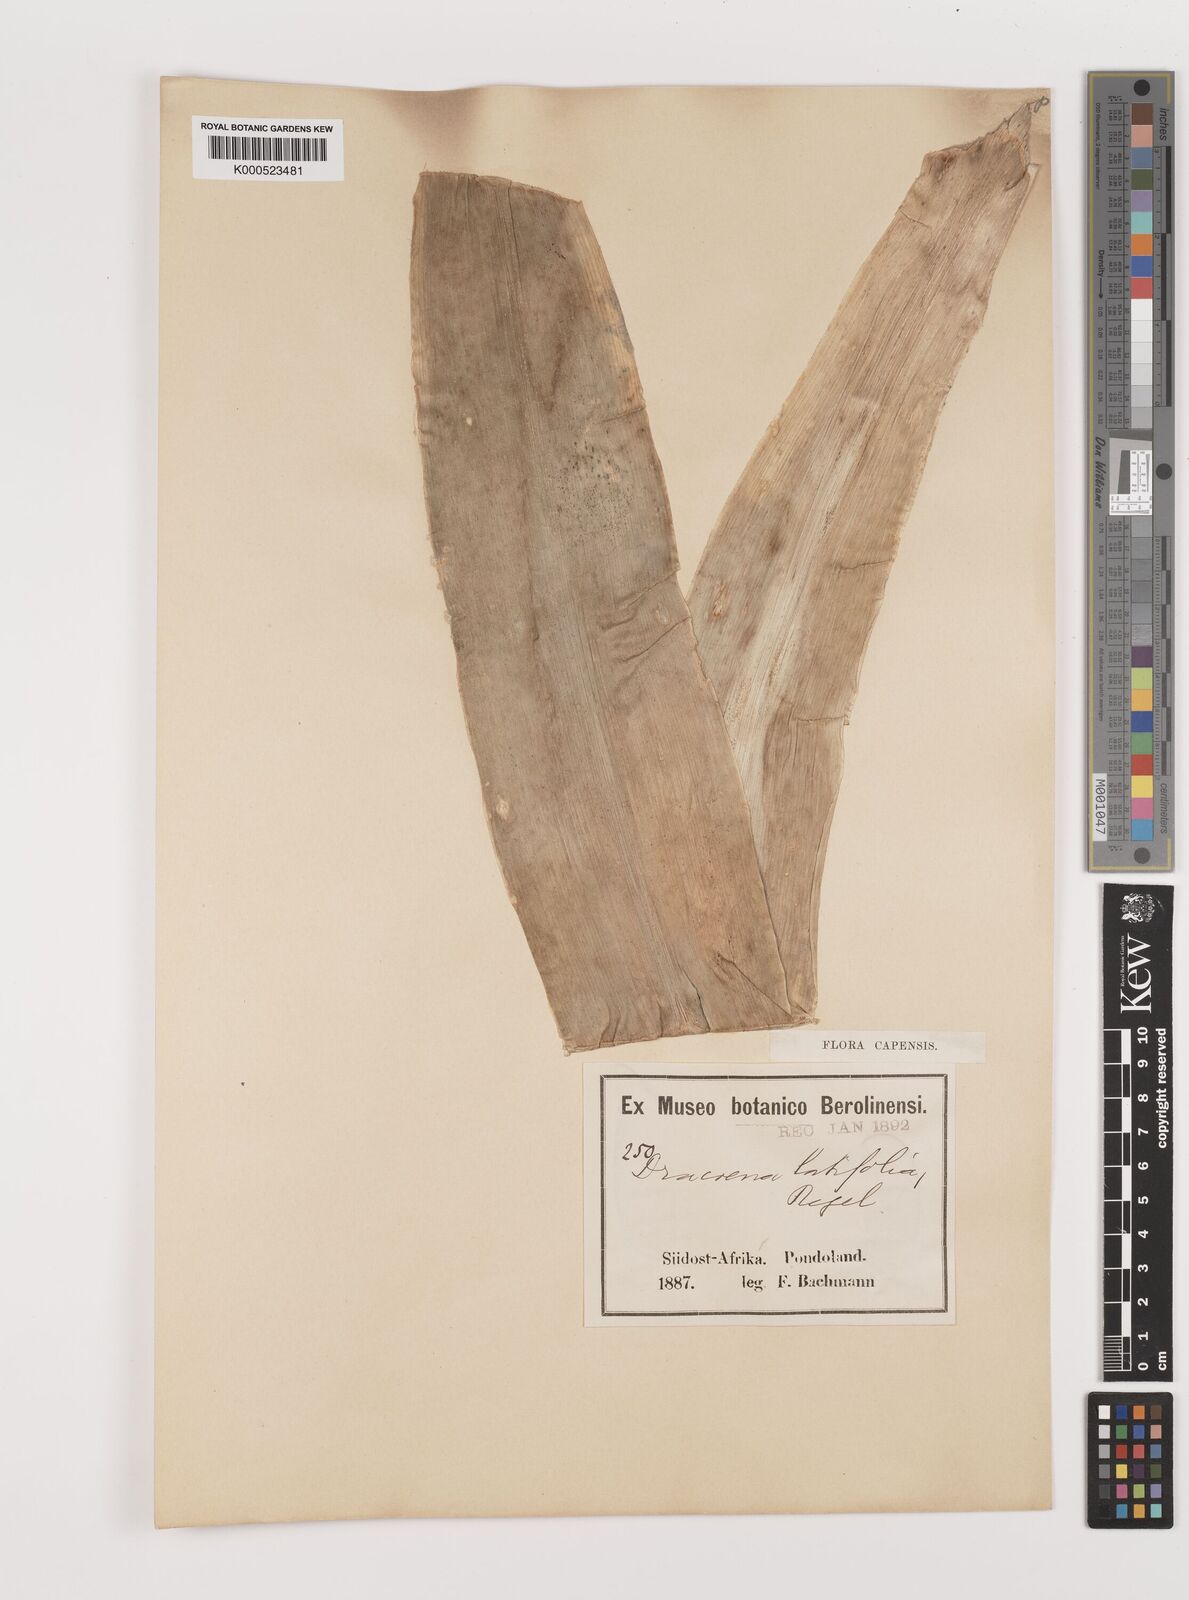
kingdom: Plantae
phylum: Tracheophyta
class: Liliopsida
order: Asparagales
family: Asparagaceae
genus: Dracaena
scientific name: Dracaena aletriformis
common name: Large-leaved dragon tree
